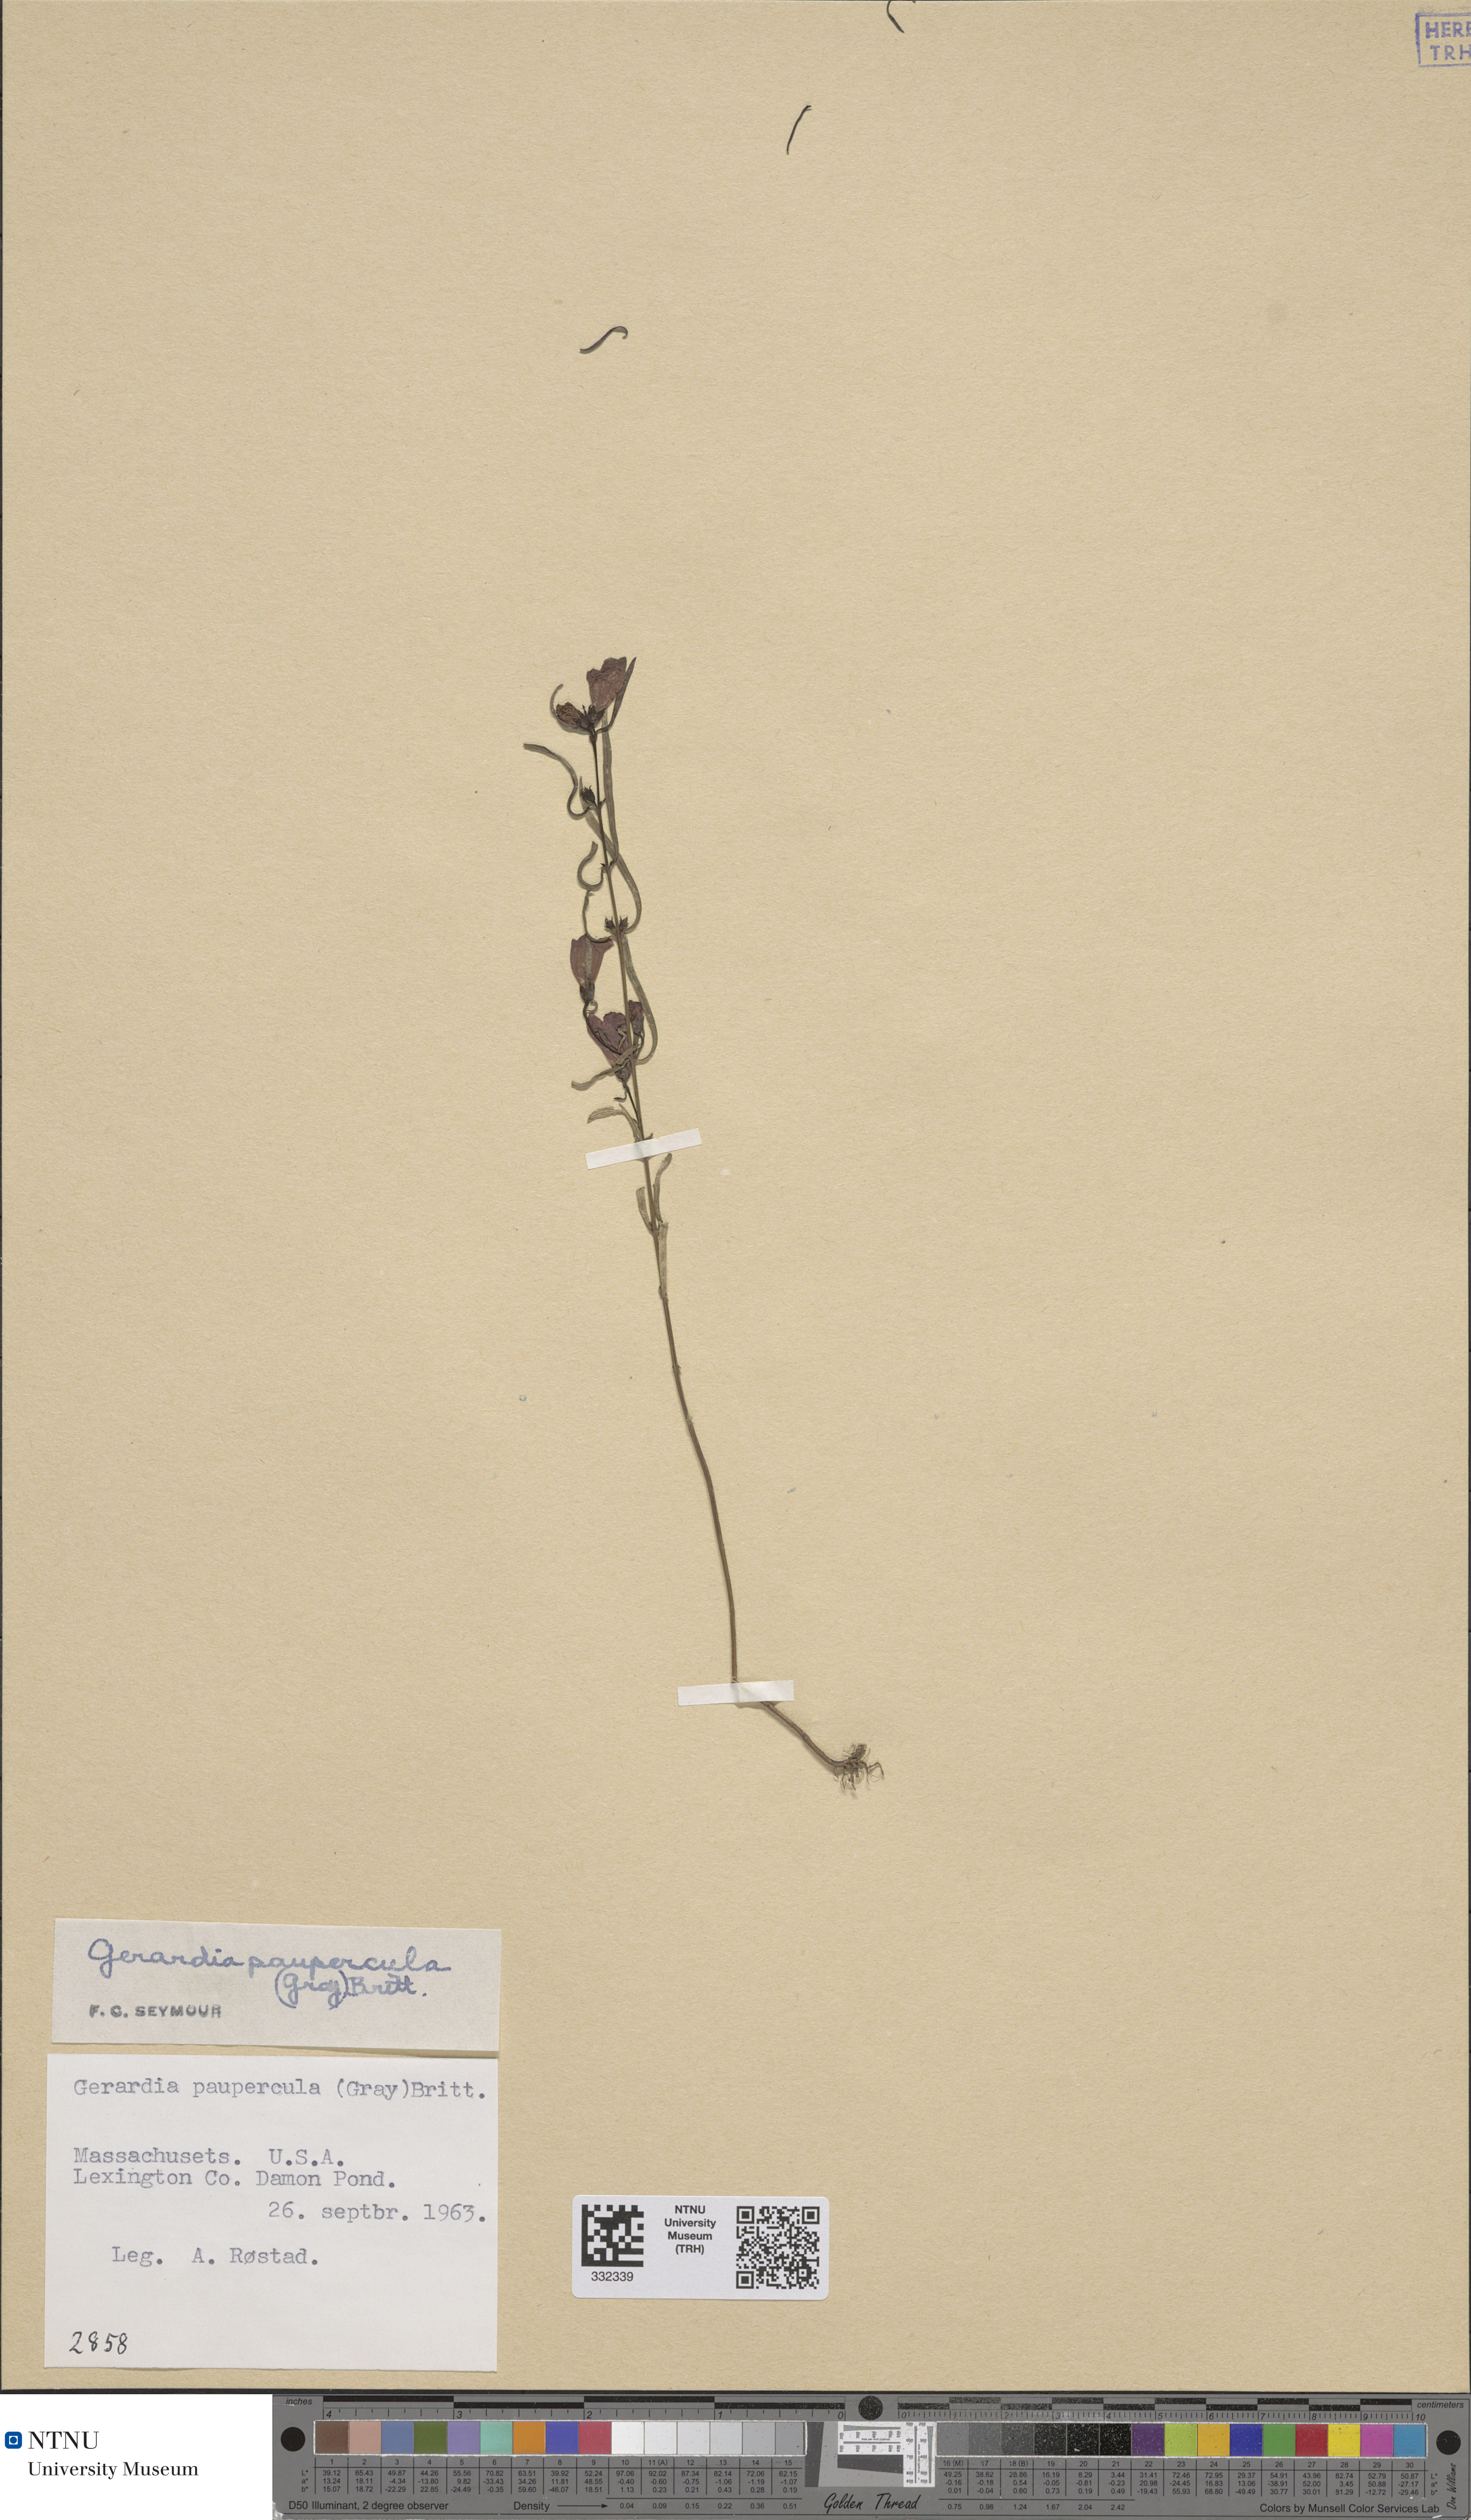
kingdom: Plantae
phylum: Tracheophyta
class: Magnoliopsida
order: Lamiales
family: Orobanchaceae
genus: Agalinis
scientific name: Agalinis purpurea
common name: Purple false foxglove
